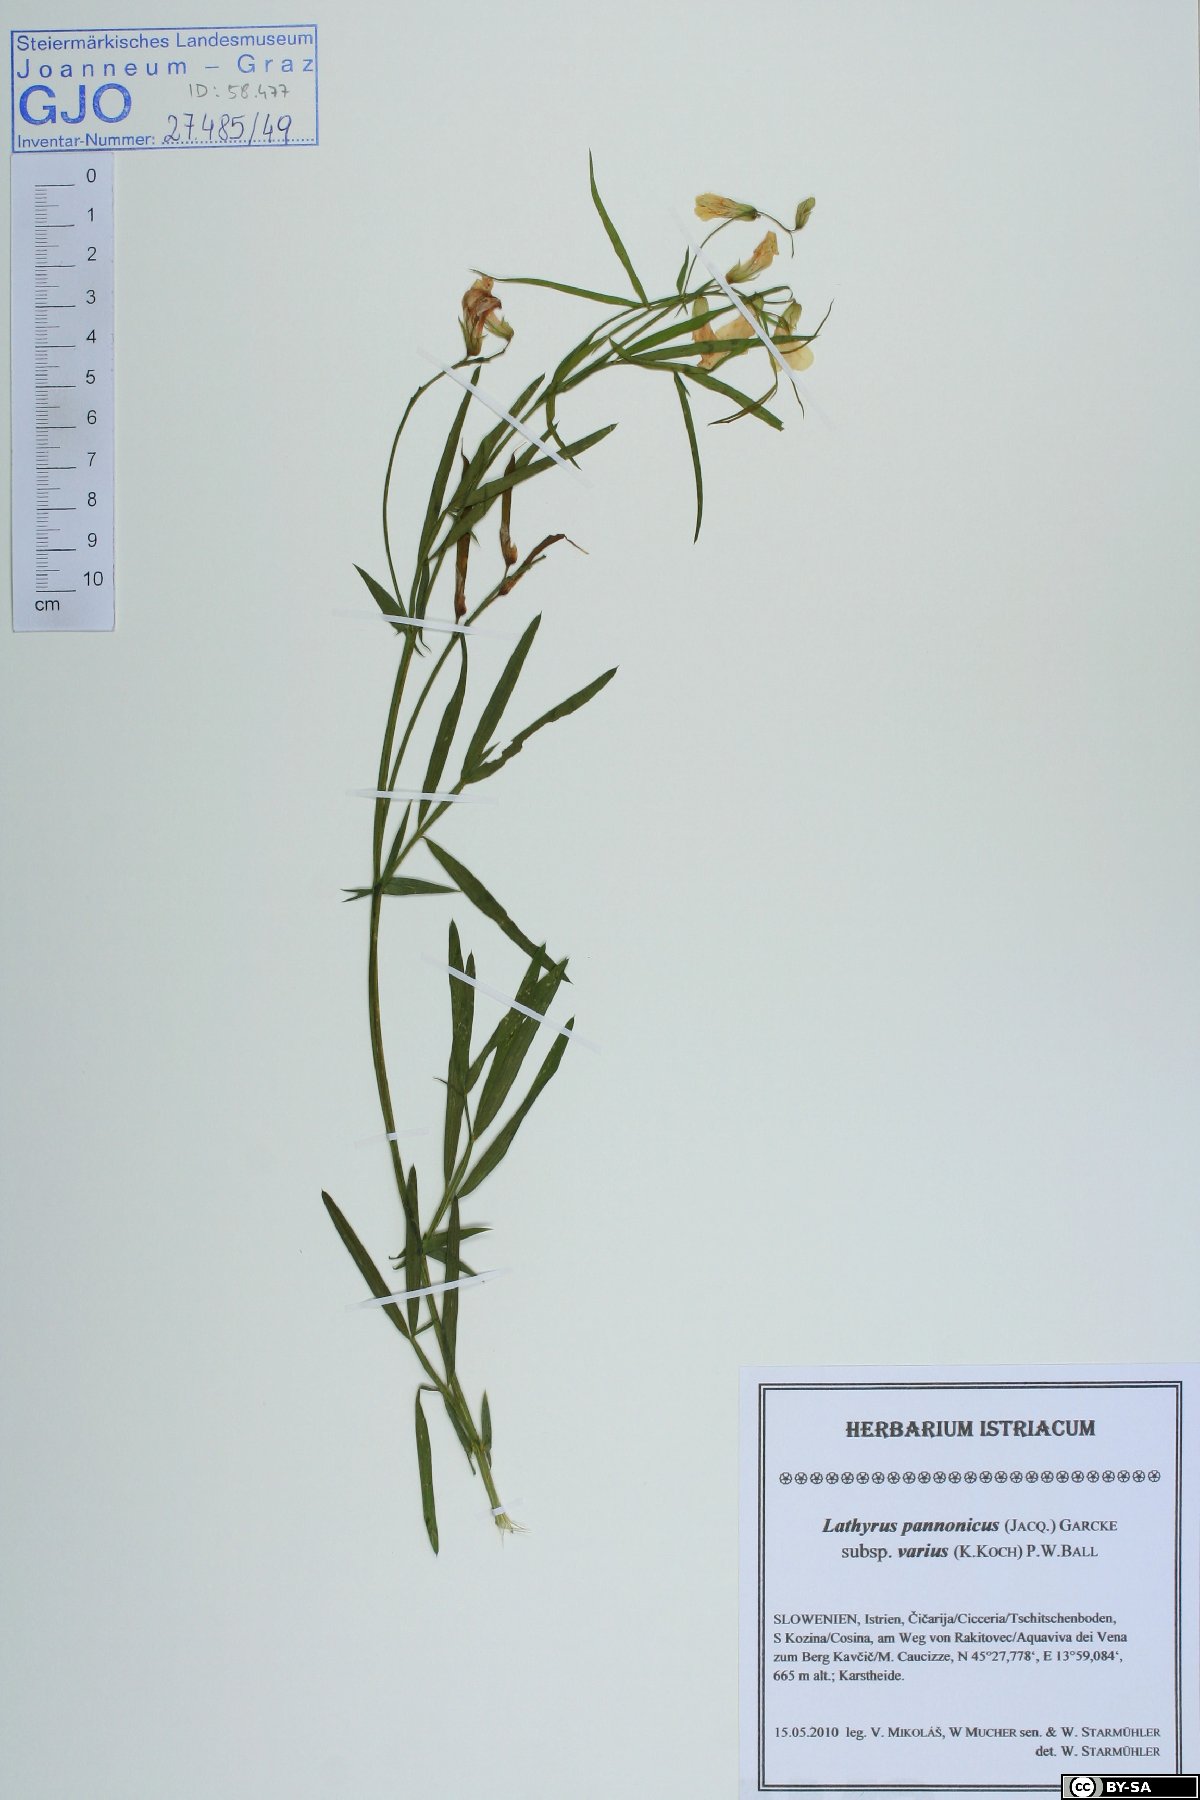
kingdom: Plantae
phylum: Tracheophyta
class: Magnoliopsida
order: Fabales
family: Fabaceae
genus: Lathyrus
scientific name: Lathyrus pannonicus
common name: Pea
